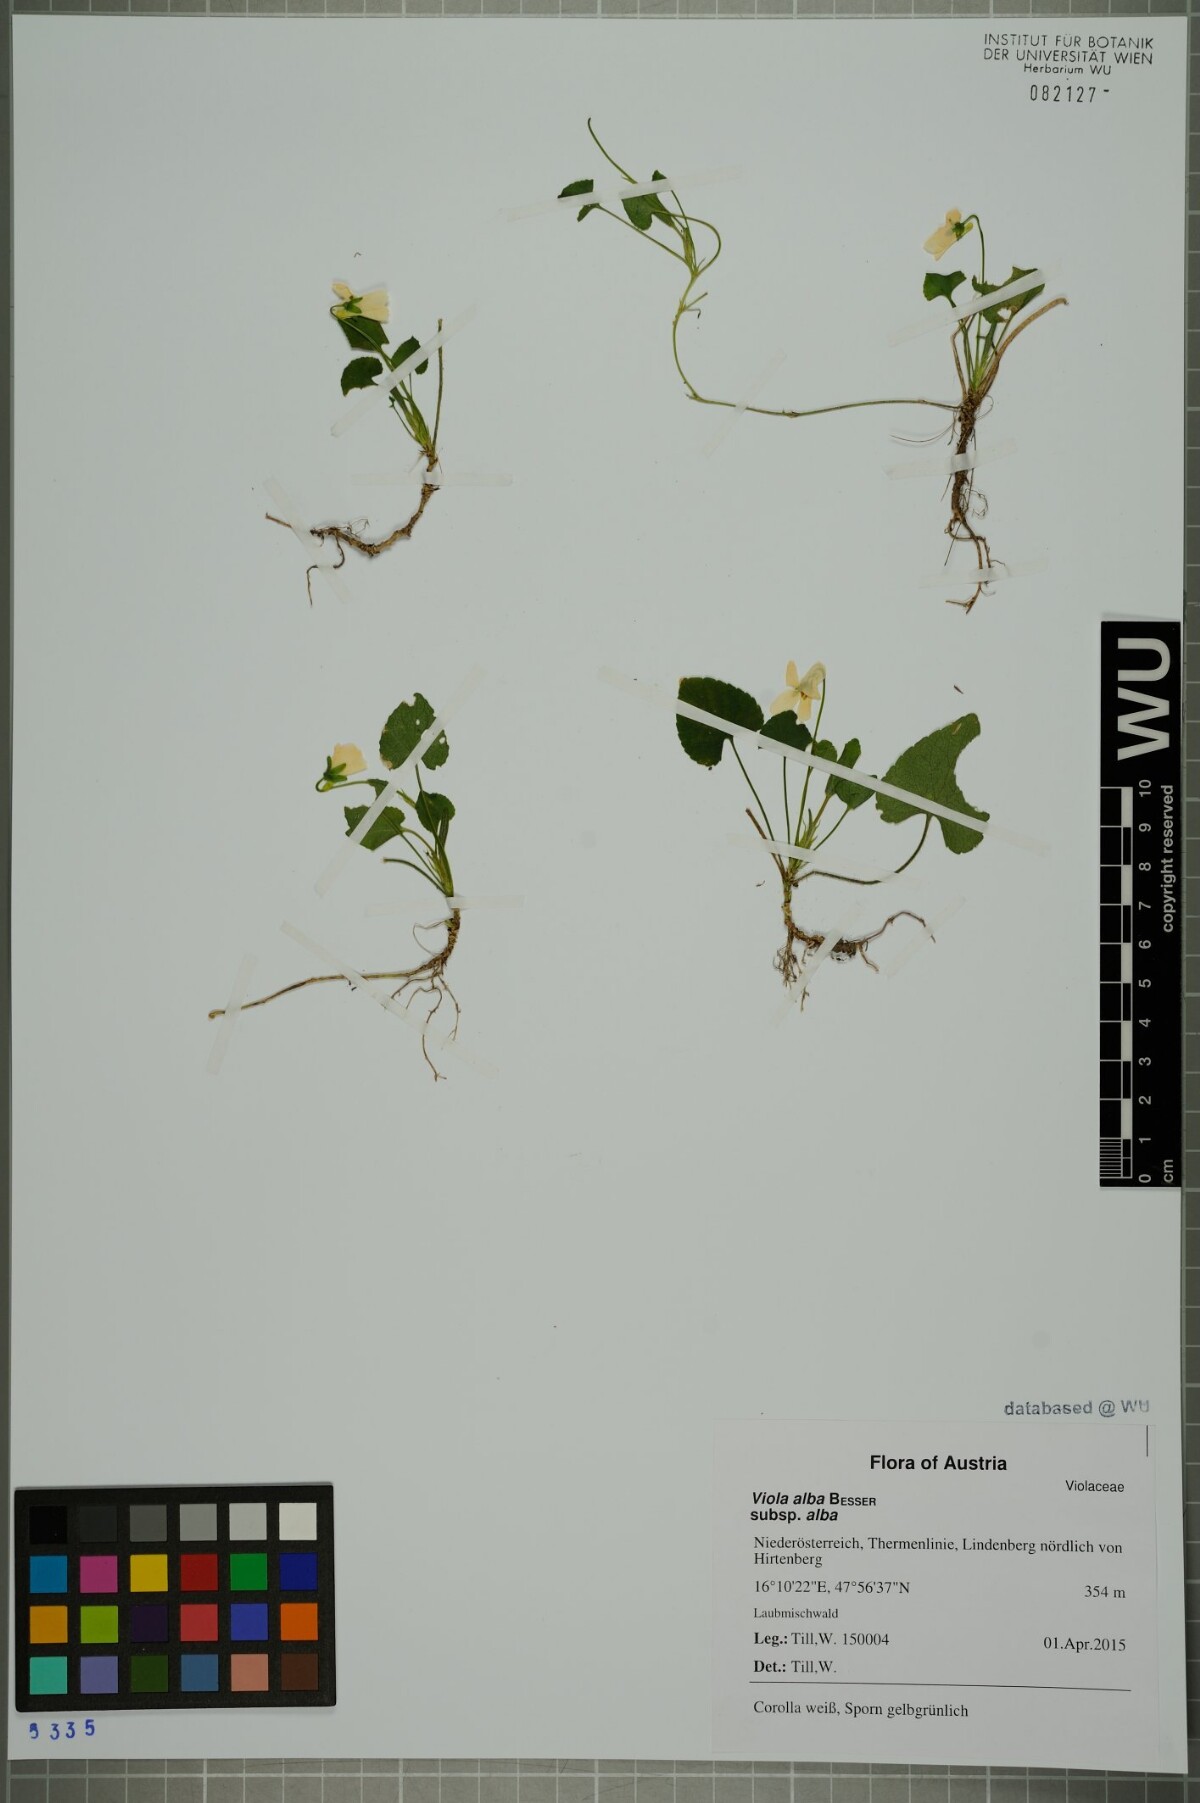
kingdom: Plantae
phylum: Tracheophyta
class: Magnoliopsida
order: Malpighiales
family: Violaceae
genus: Viola
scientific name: Viola alba
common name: White violet
